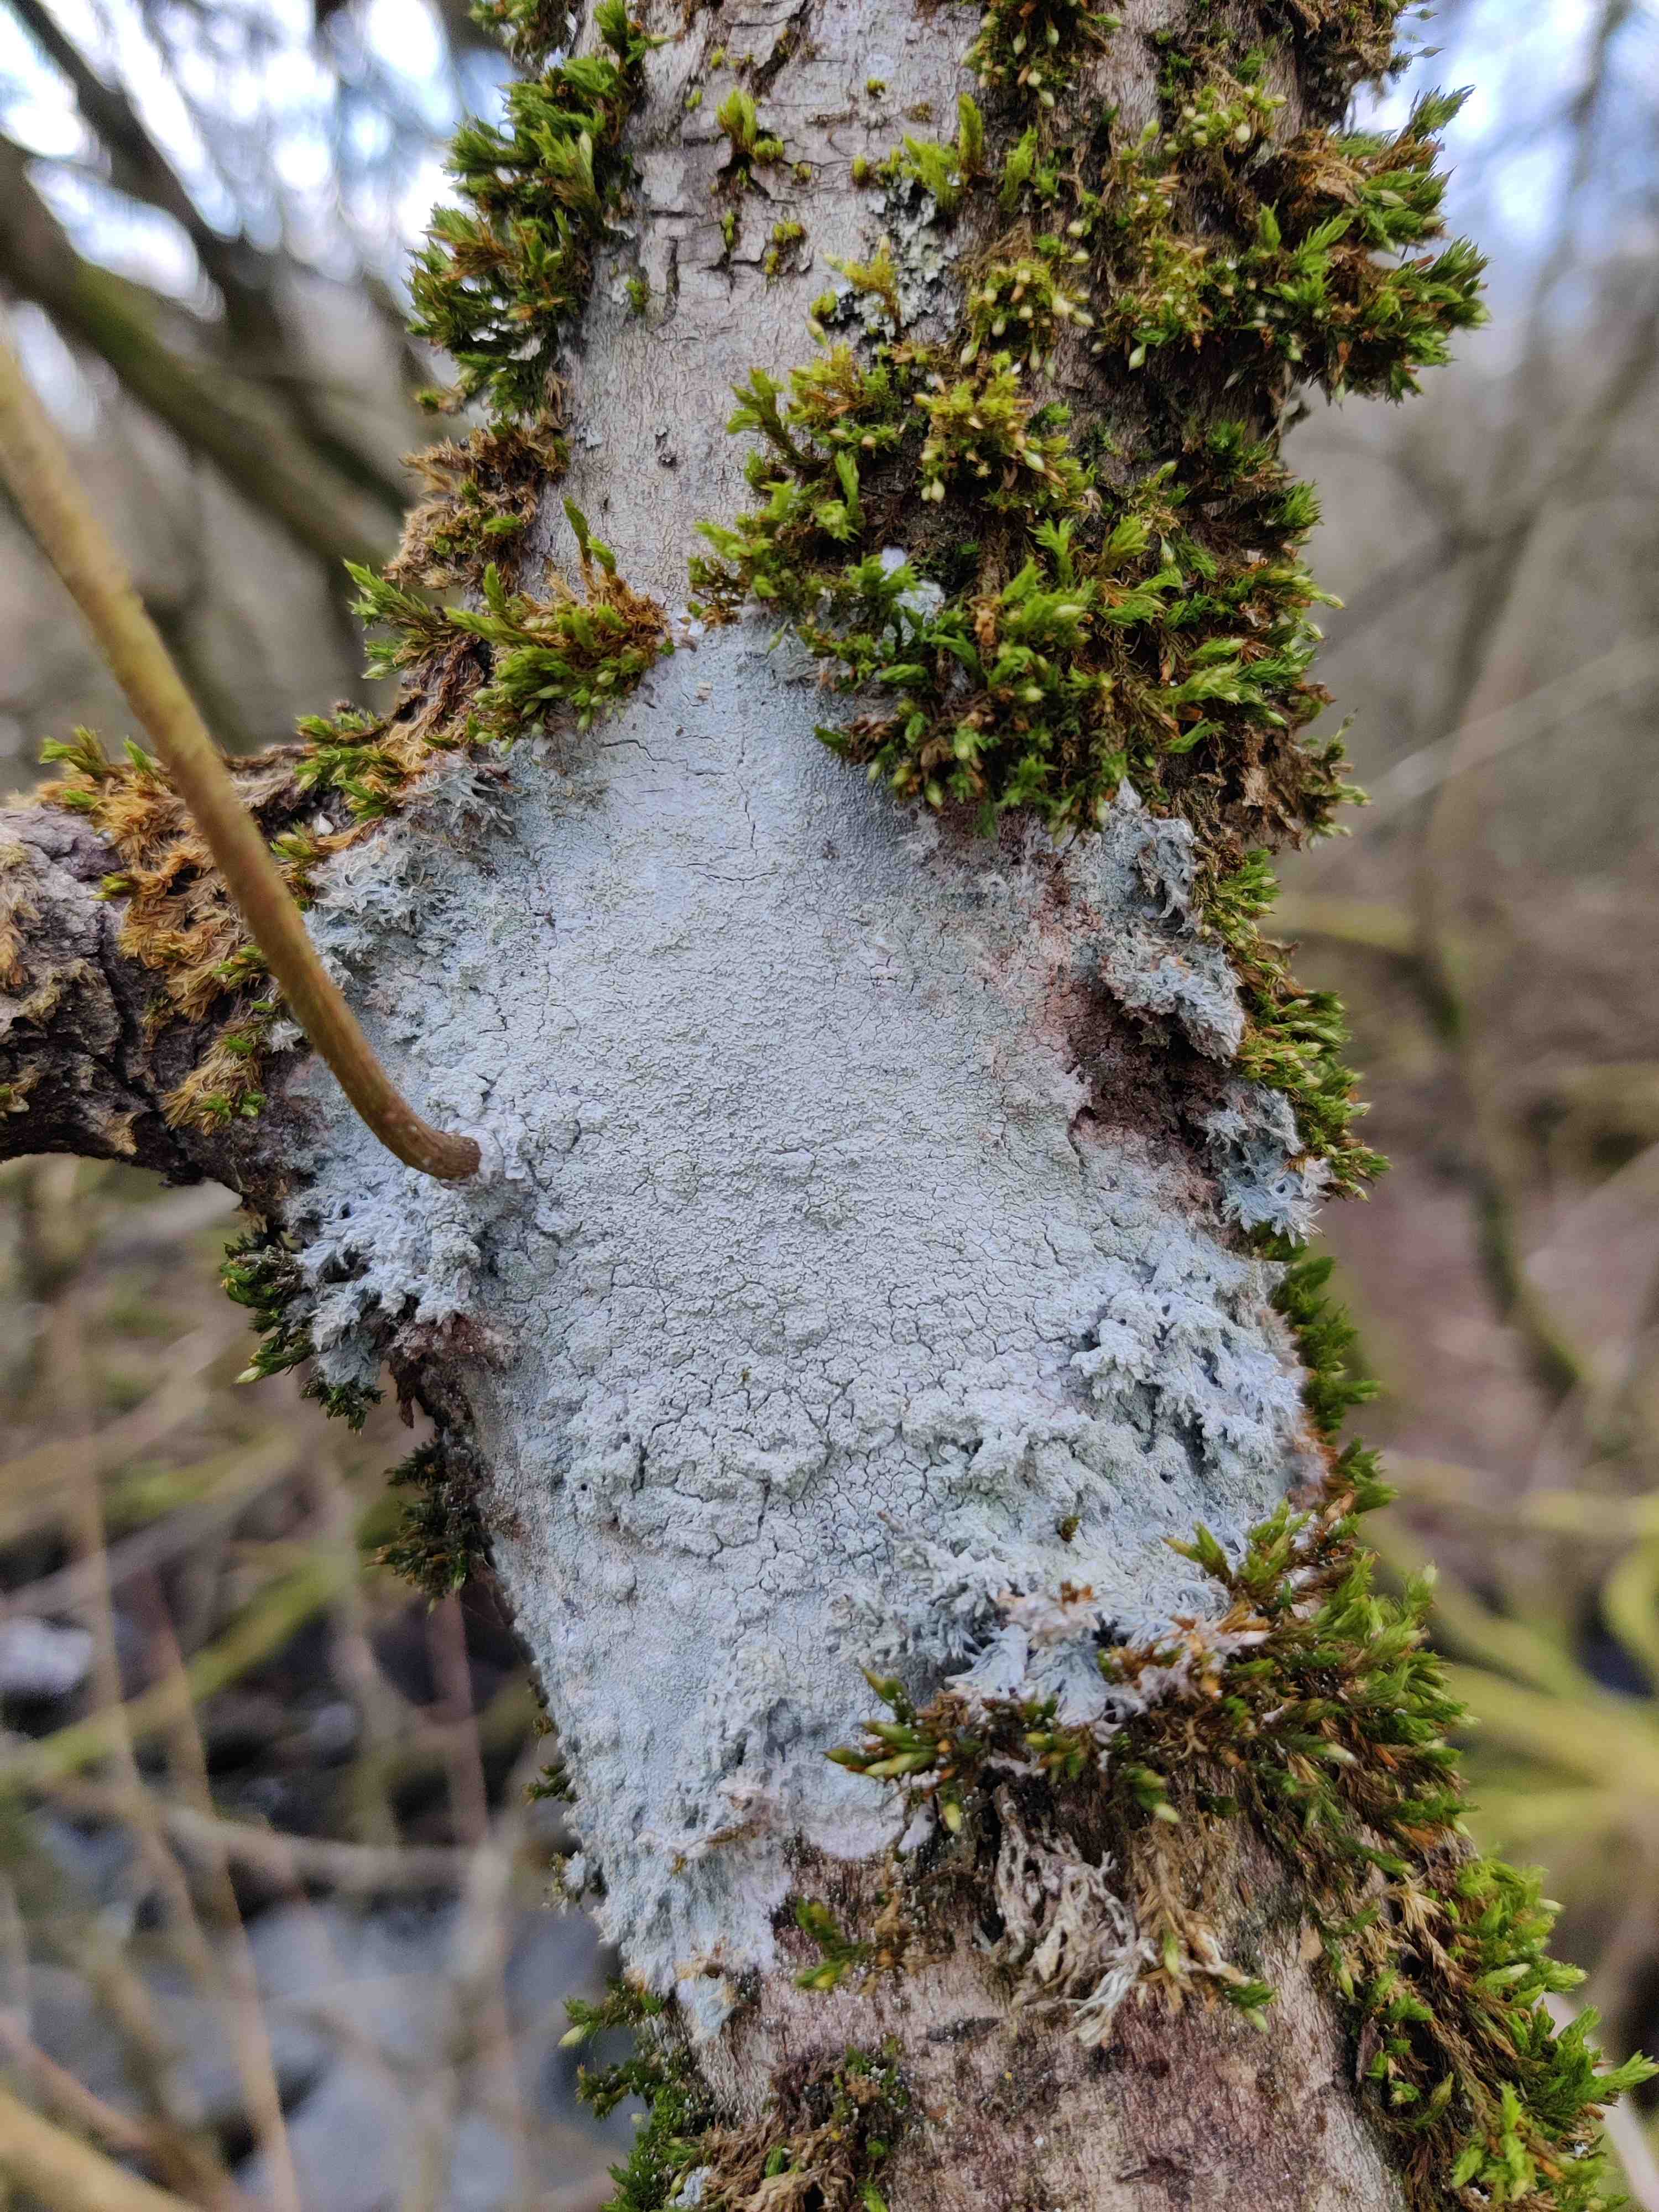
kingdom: Fungi
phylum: Ascomycota
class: Lecanoromycetes
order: Ostropales
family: Phlyctidaceae
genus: Phlyctis
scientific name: Phlyctis argena
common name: almindelig sølvlav
